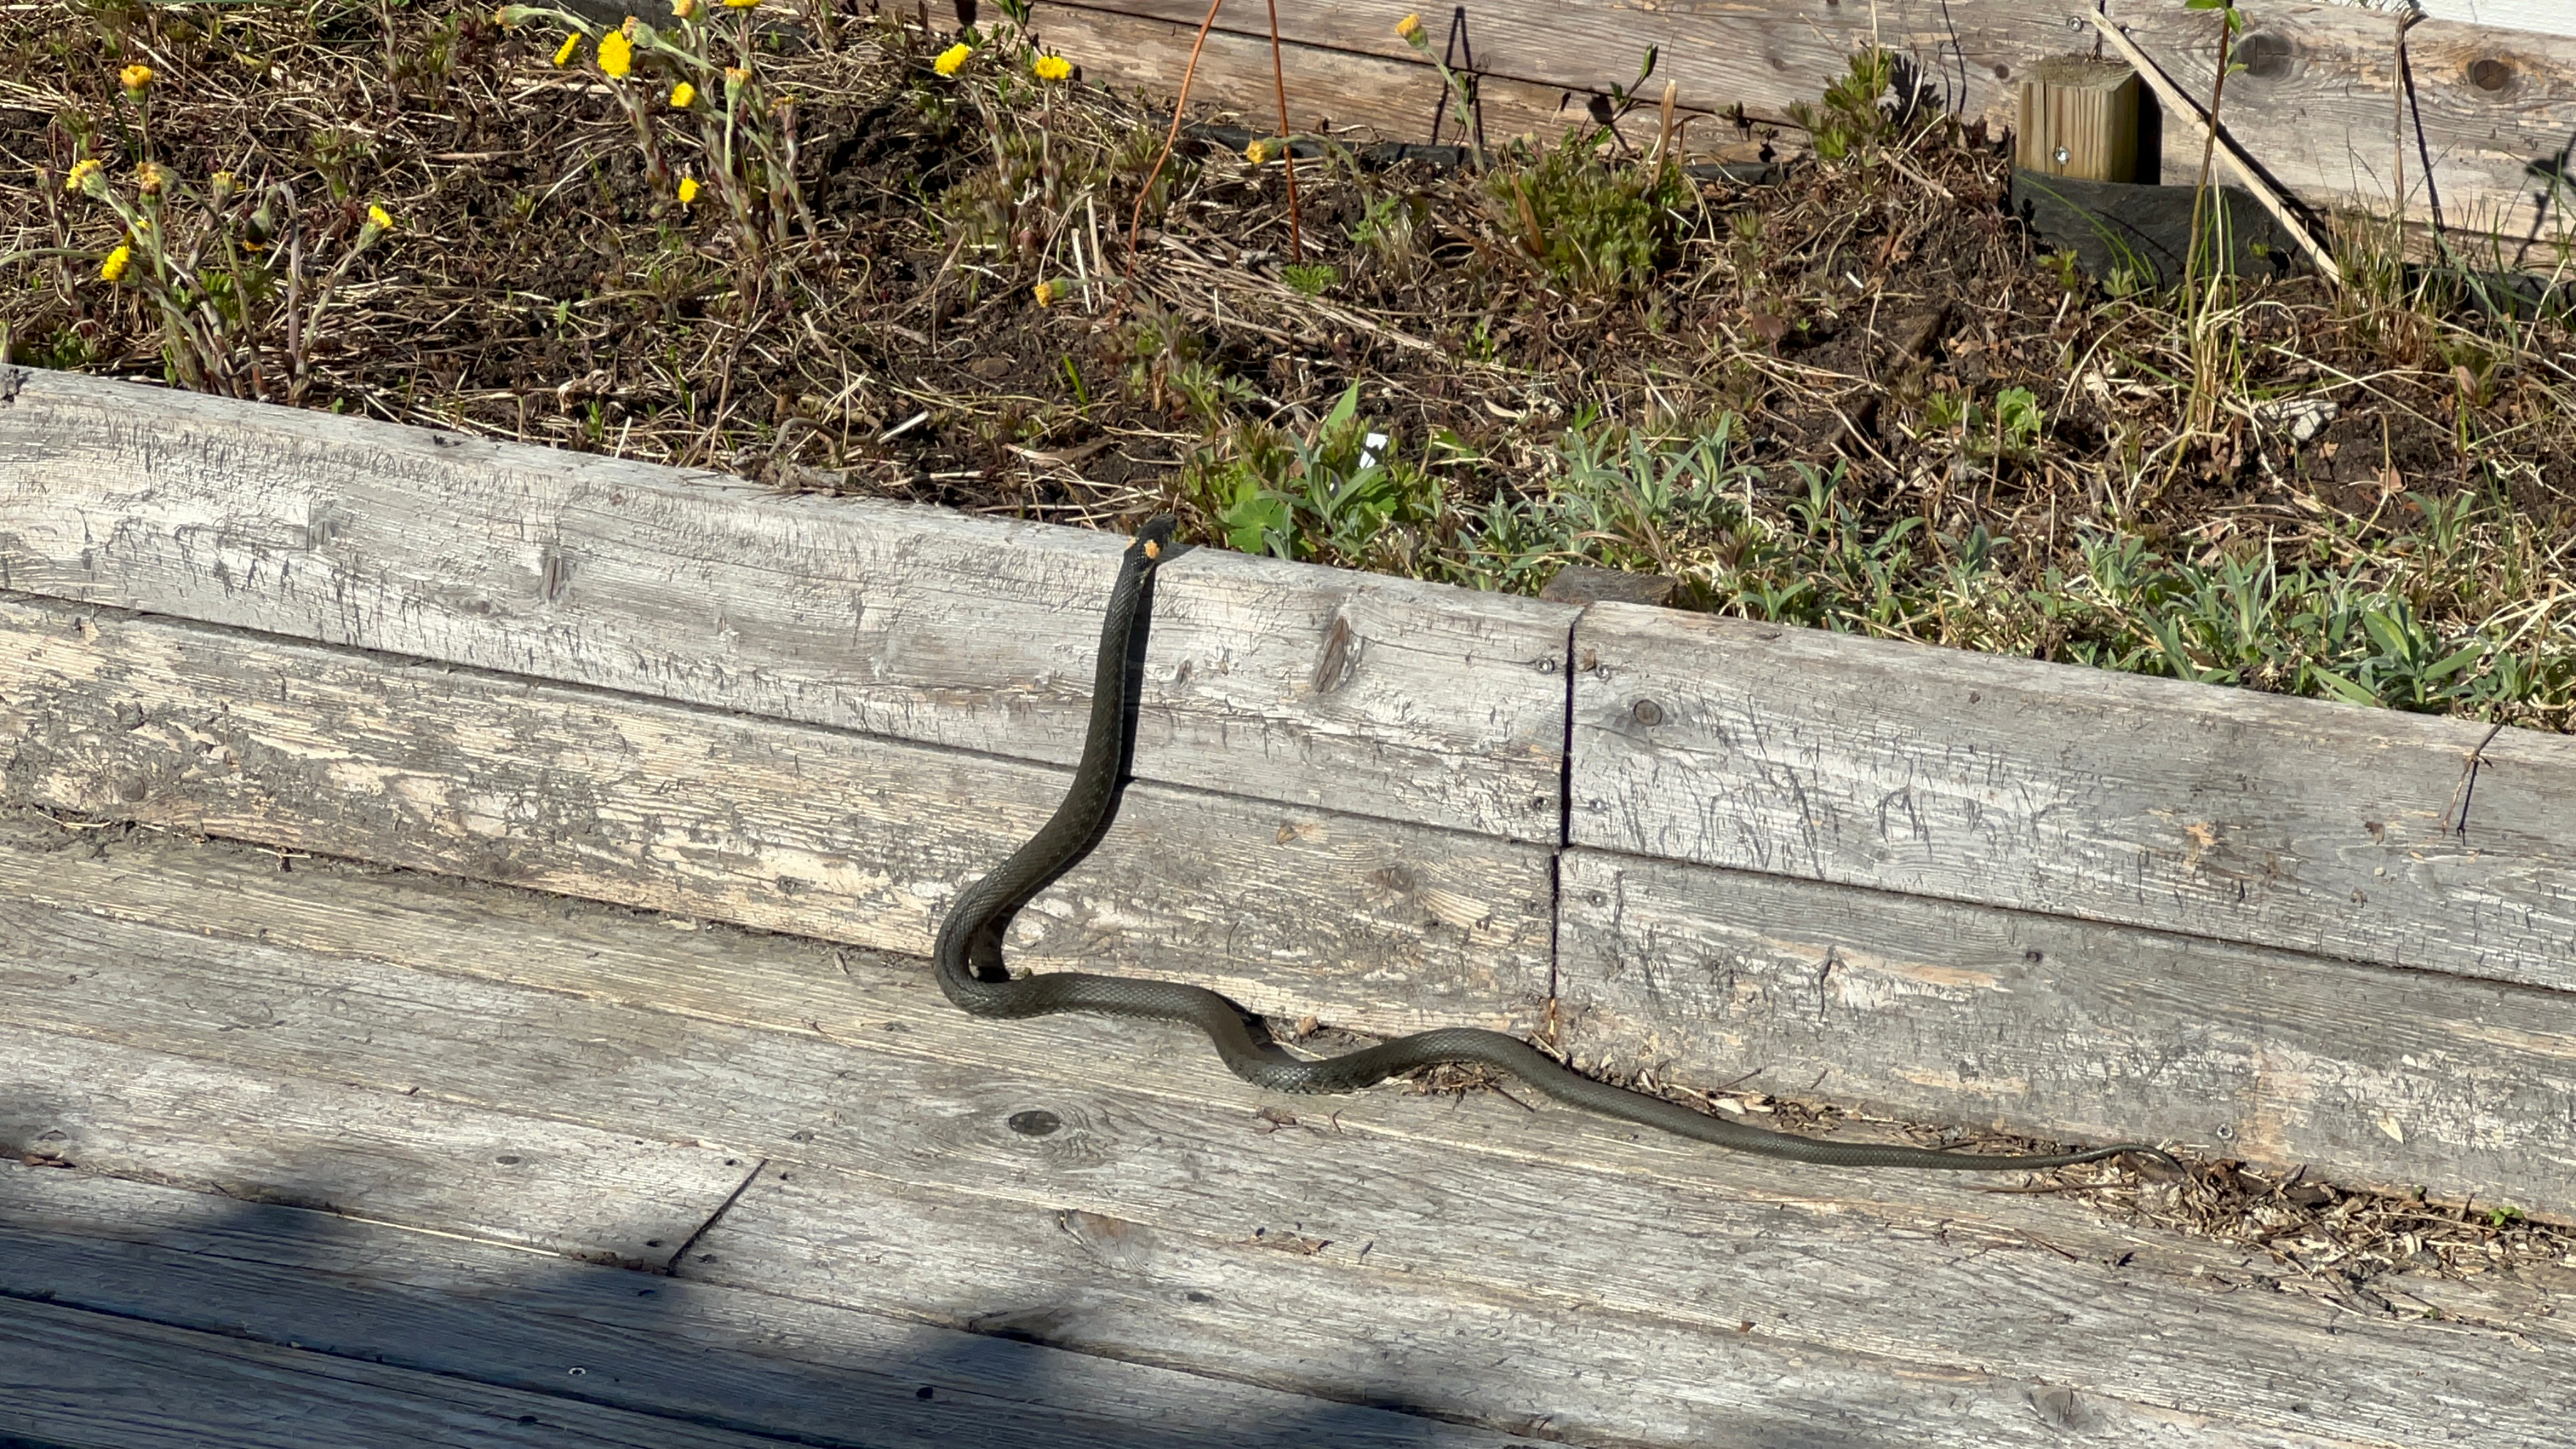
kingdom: Animalia
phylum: Chordata
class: Squamata
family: Colubridae
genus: Natrix
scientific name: Natrix natrix
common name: Grass snake
